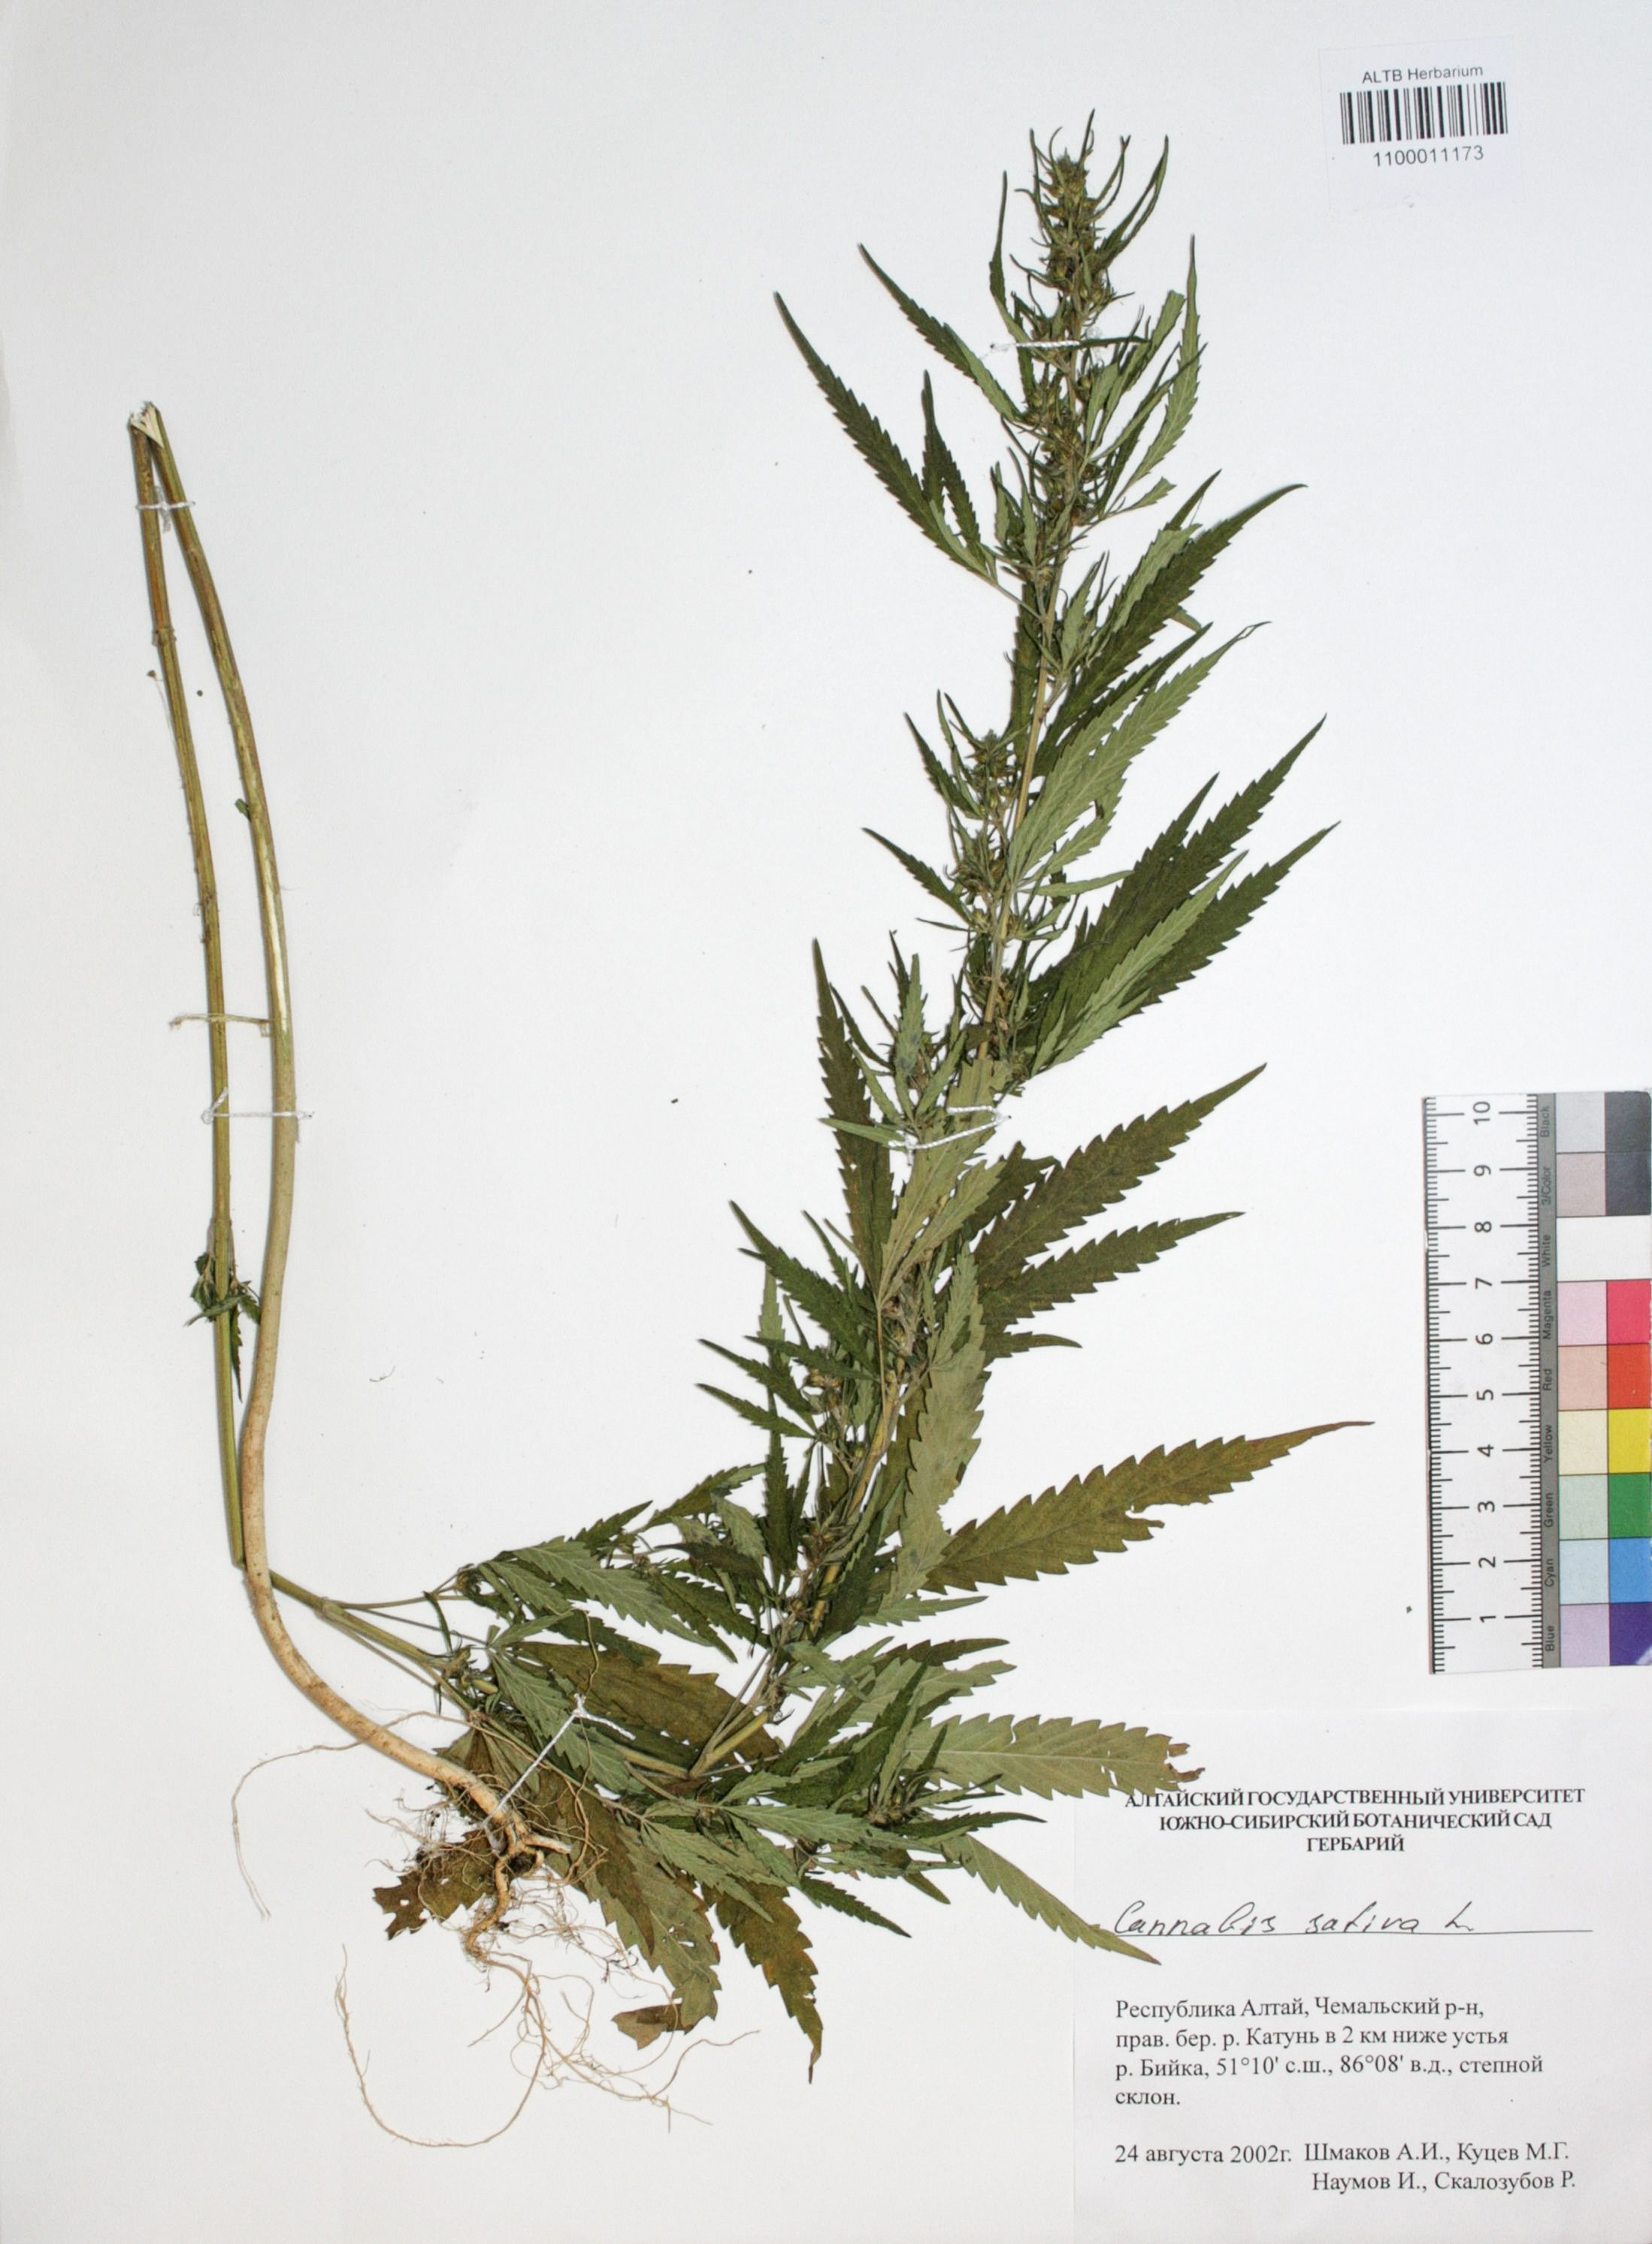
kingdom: Plantae
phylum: Tracheophyta
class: Magnoliopsida
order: Rosales
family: Cannabaceae
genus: Cannabis
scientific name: Cannabis sativa
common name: Hemp
